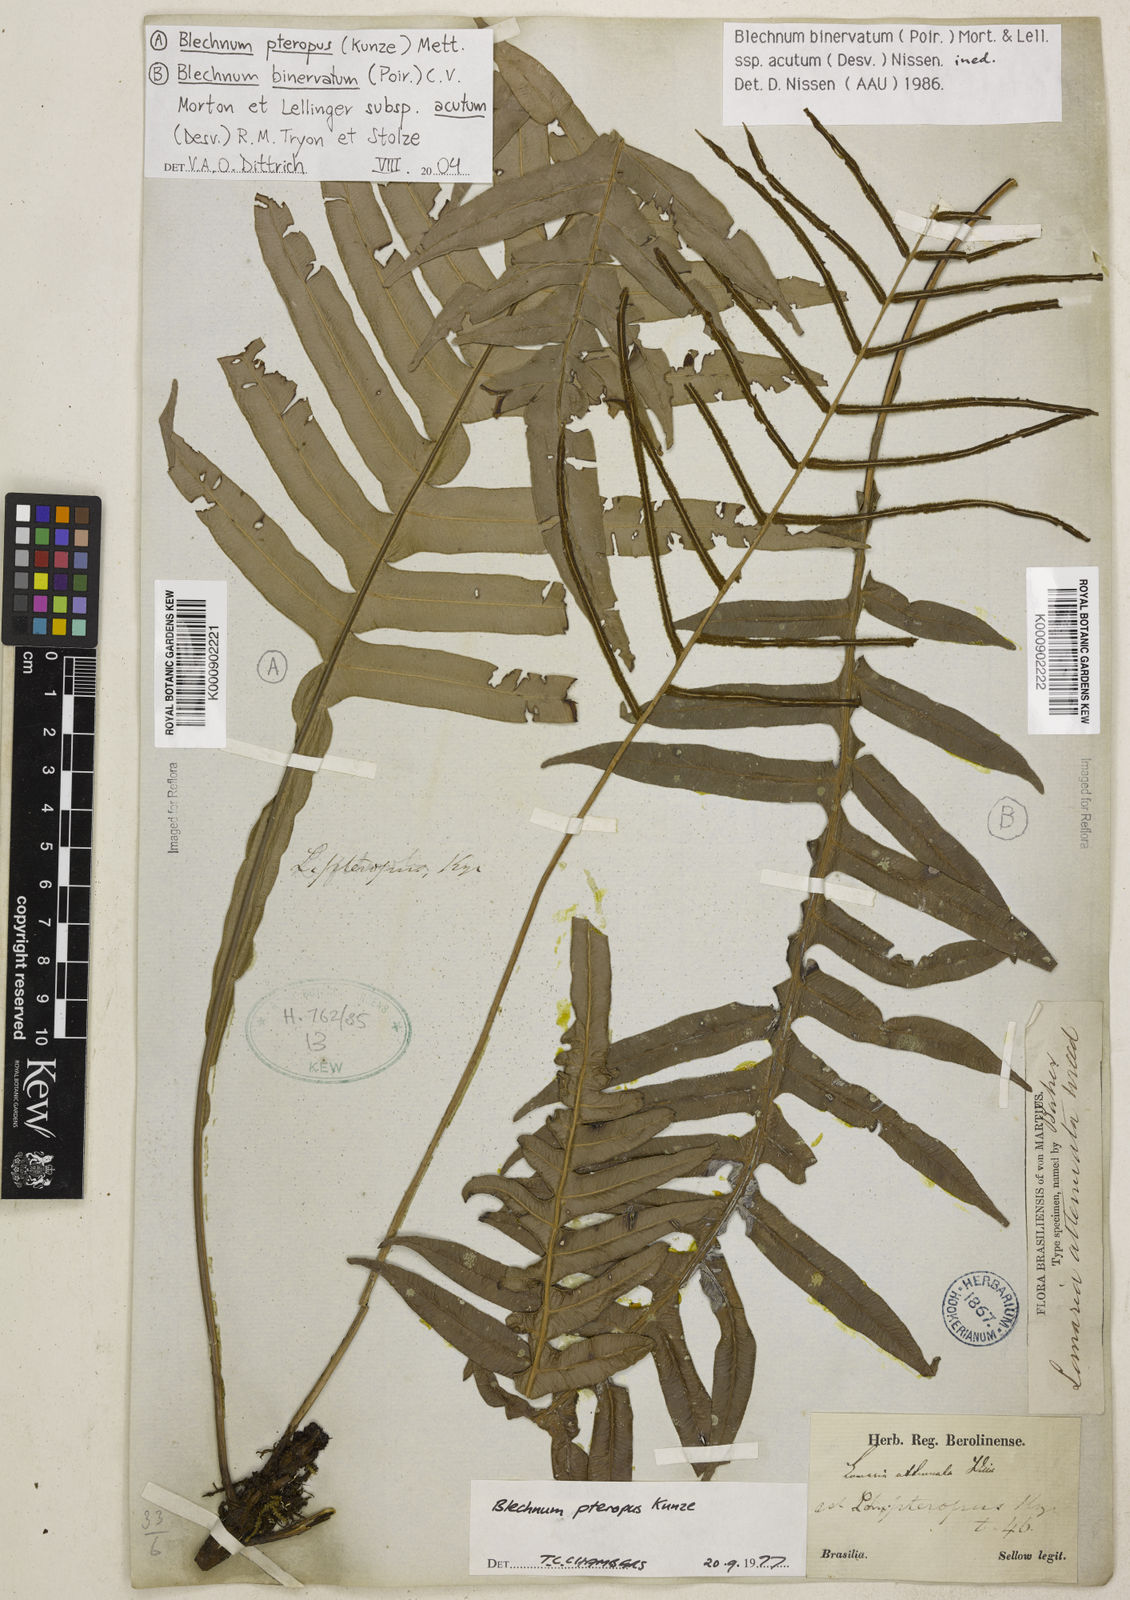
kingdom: Plantae
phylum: Tracheophyta
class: Polypodiopsida
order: Polypodiales
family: Blechnaceae
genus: Lomaridium
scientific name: Lomaridium pteropus
